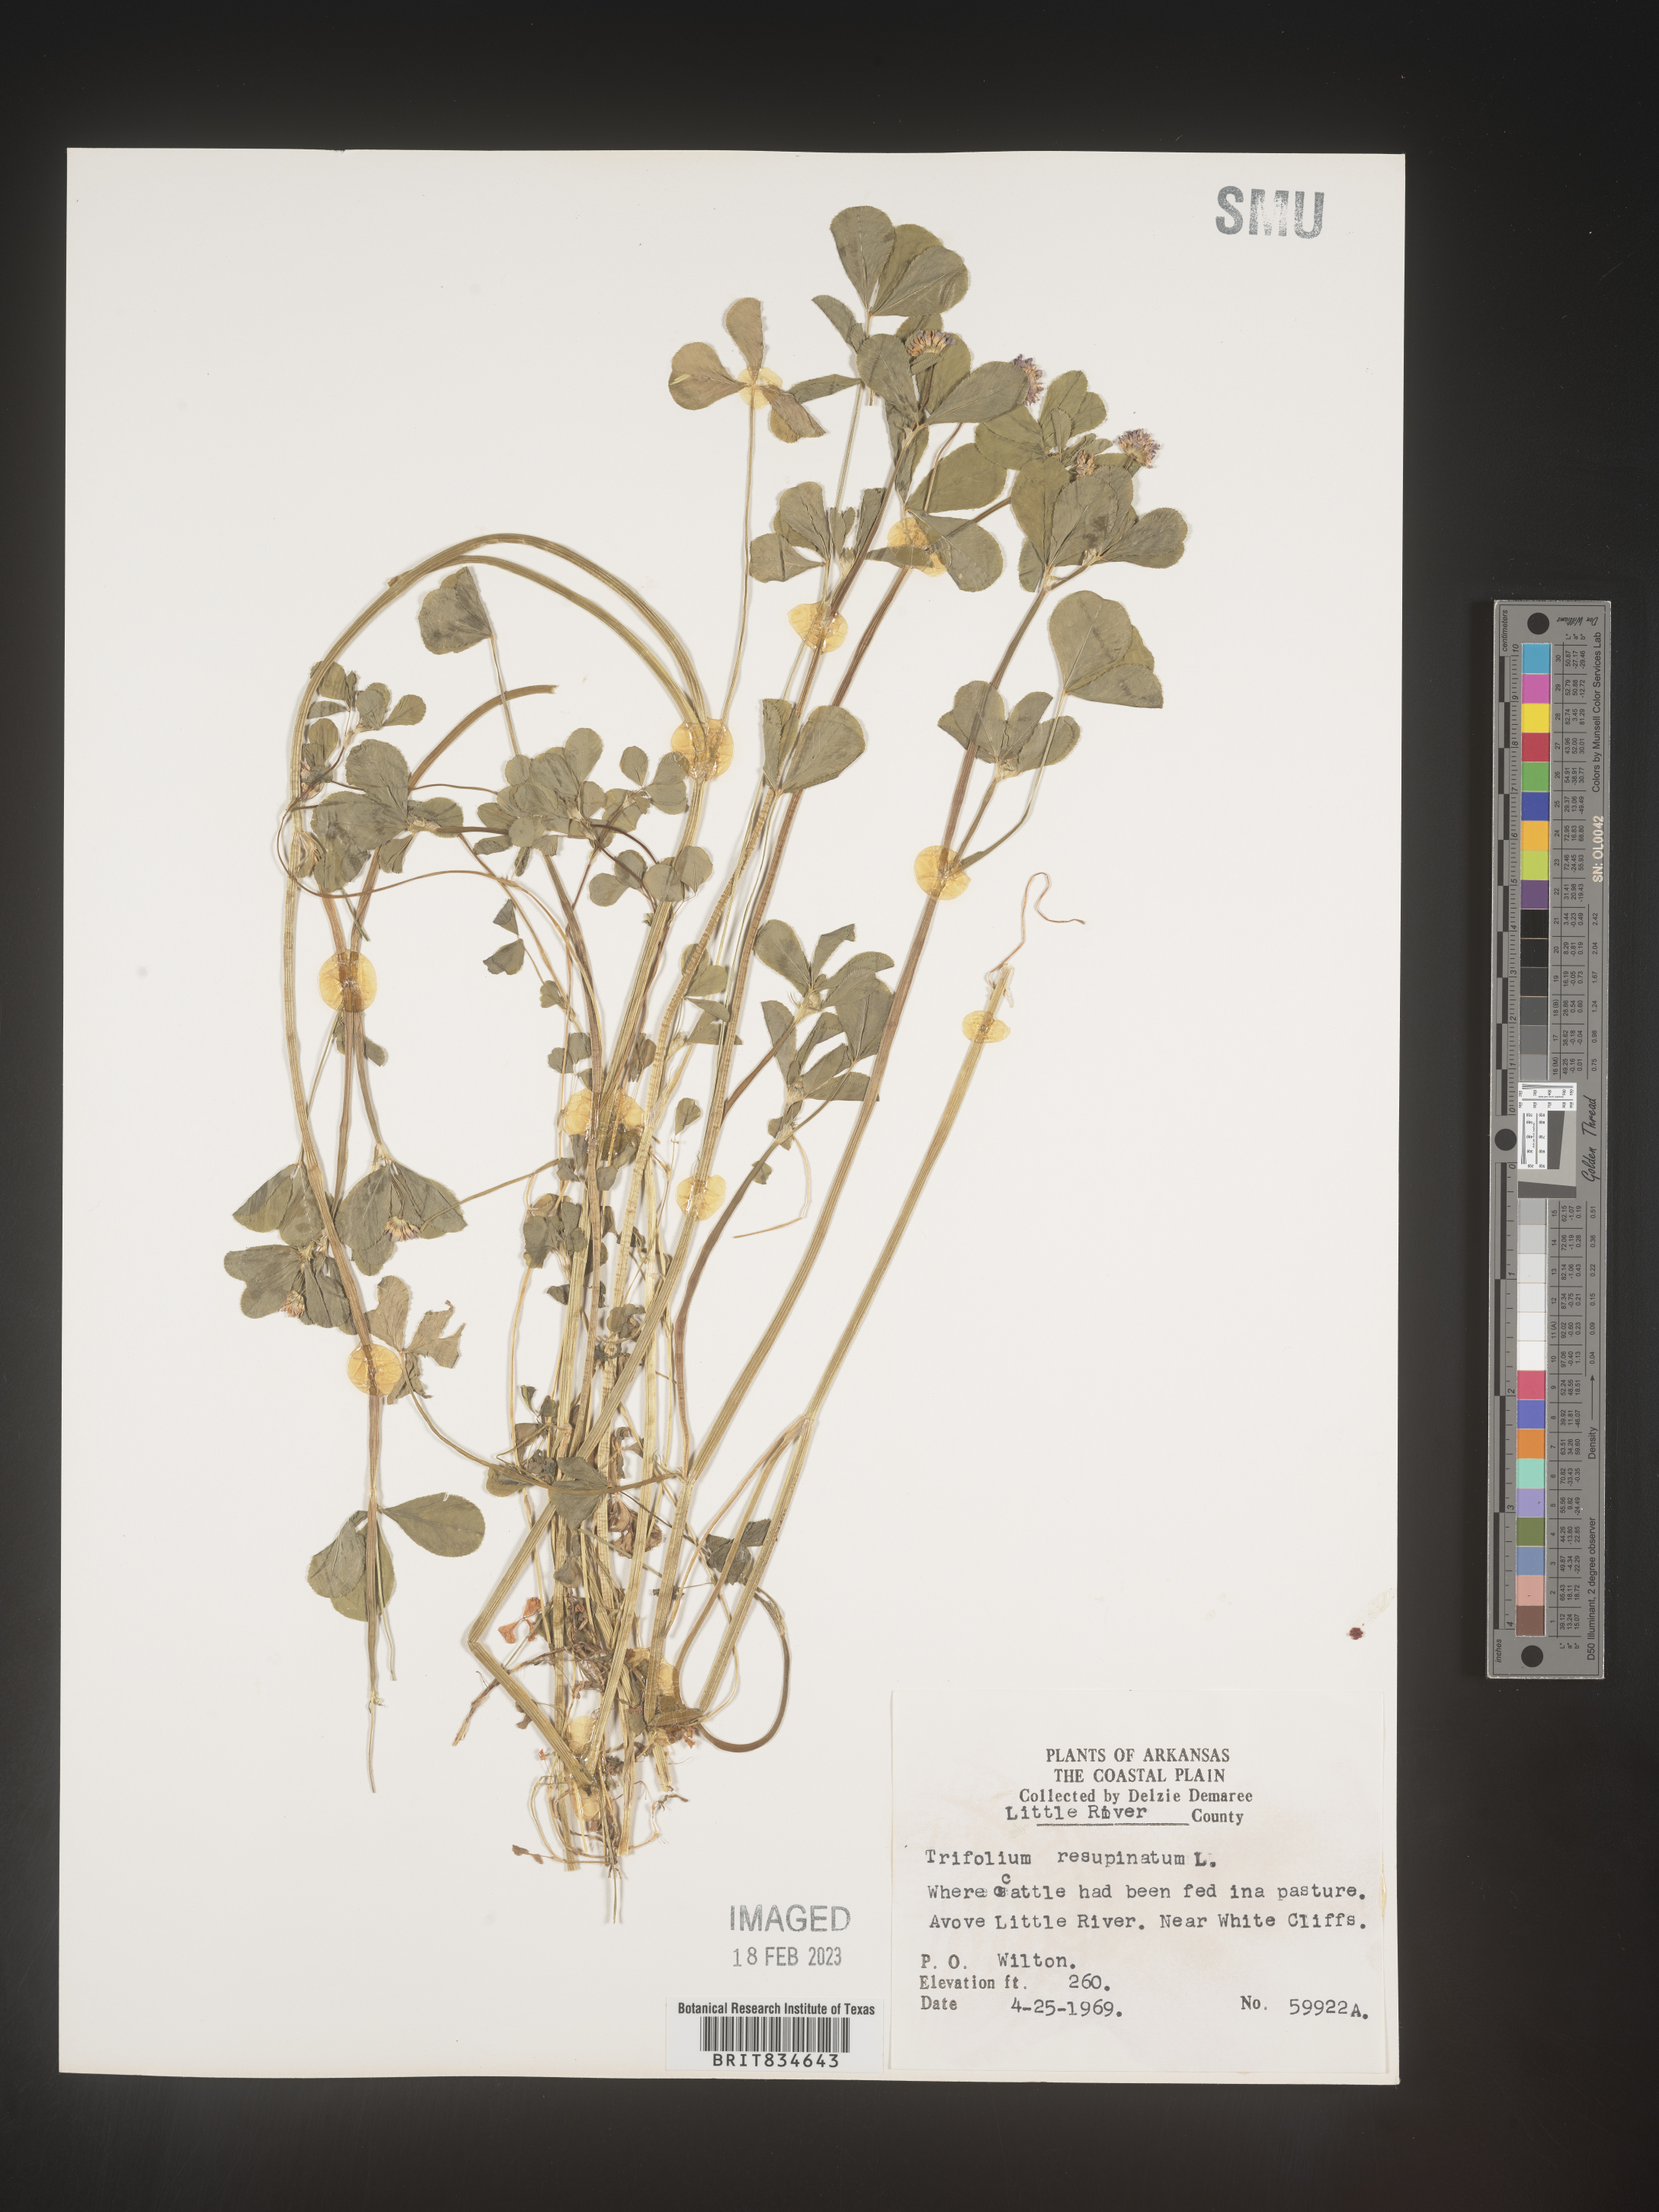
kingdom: Plantae
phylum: Tracheophyta
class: Magnoliopsida
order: Fabales
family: Fabaceae
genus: Trifolium
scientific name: Trifolium resupinatum
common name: Reversed clover
